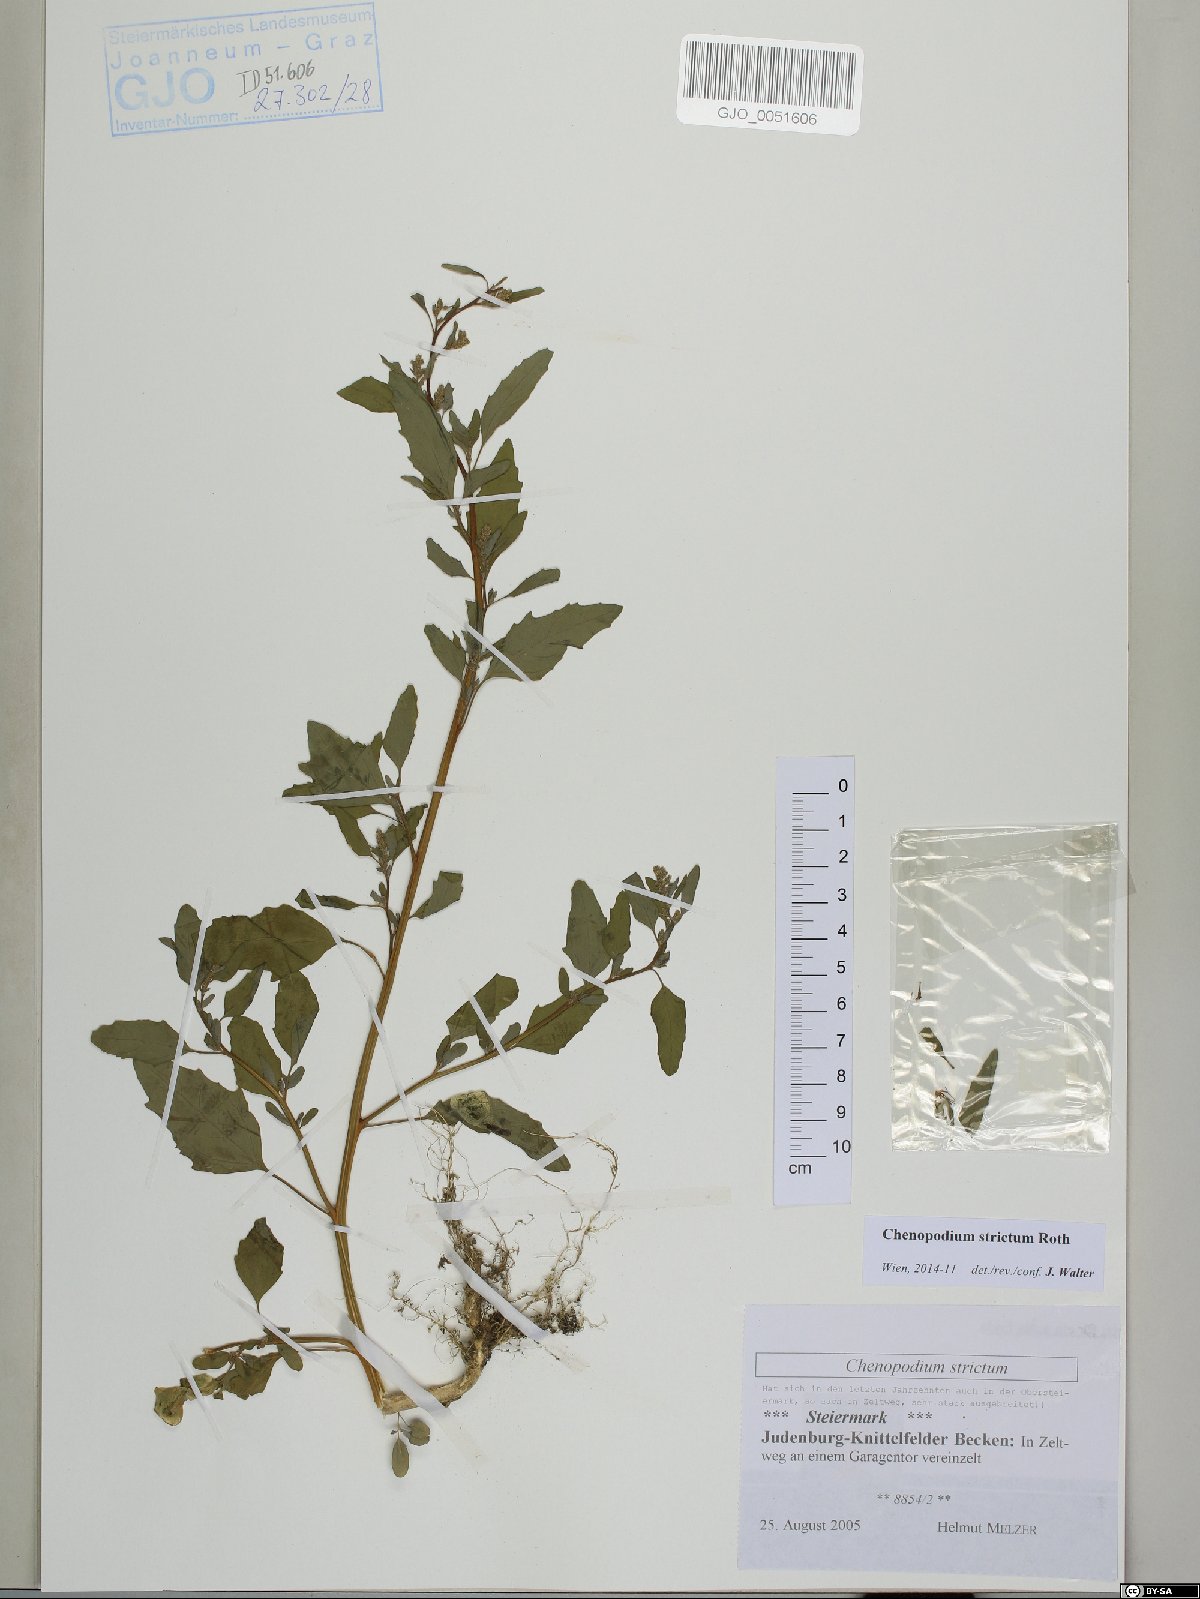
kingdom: Plantae
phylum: Tracheophyta
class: Magnoliopsida
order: Caryophyllales
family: Amaranthaceae
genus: Chenopodium
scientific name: Chenopodium album
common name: Fat-hen
